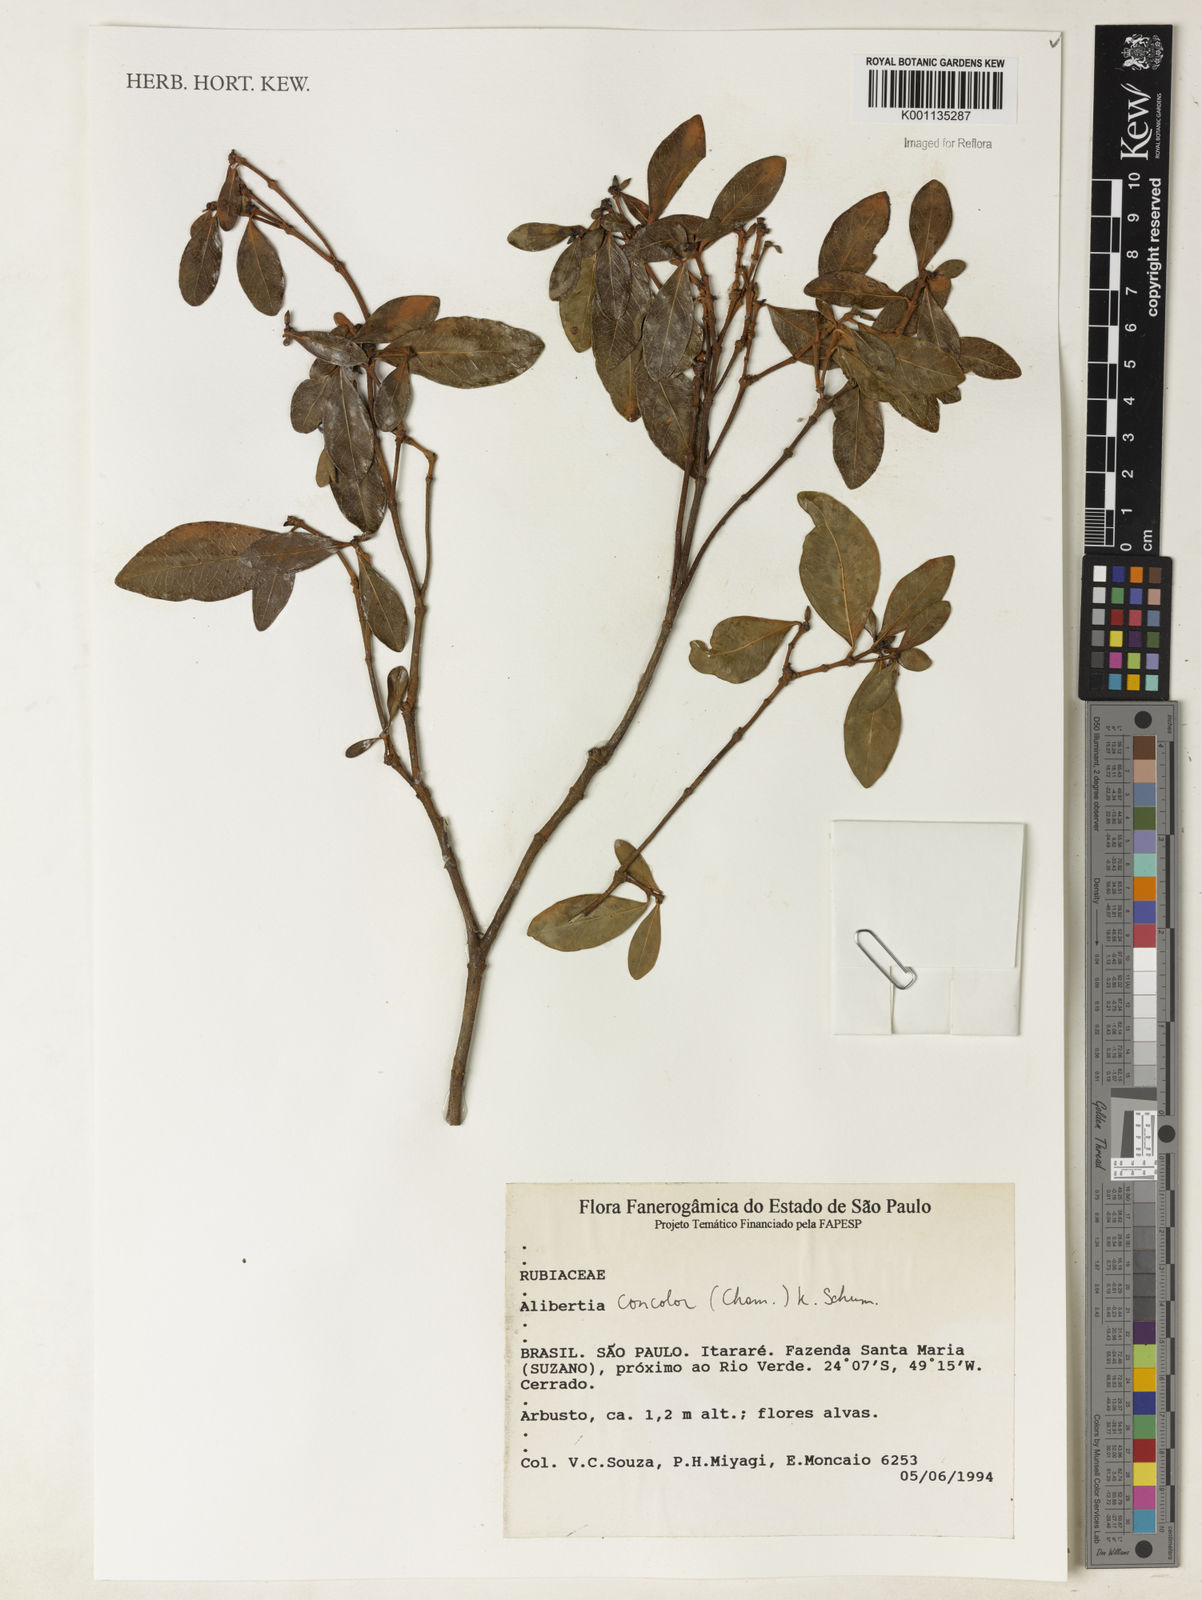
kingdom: Plantae
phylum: Tracheophyta
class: Magnoliopsida
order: Gentianales
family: Rubiaceae
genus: Cordiera
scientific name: Cordiera concolor
